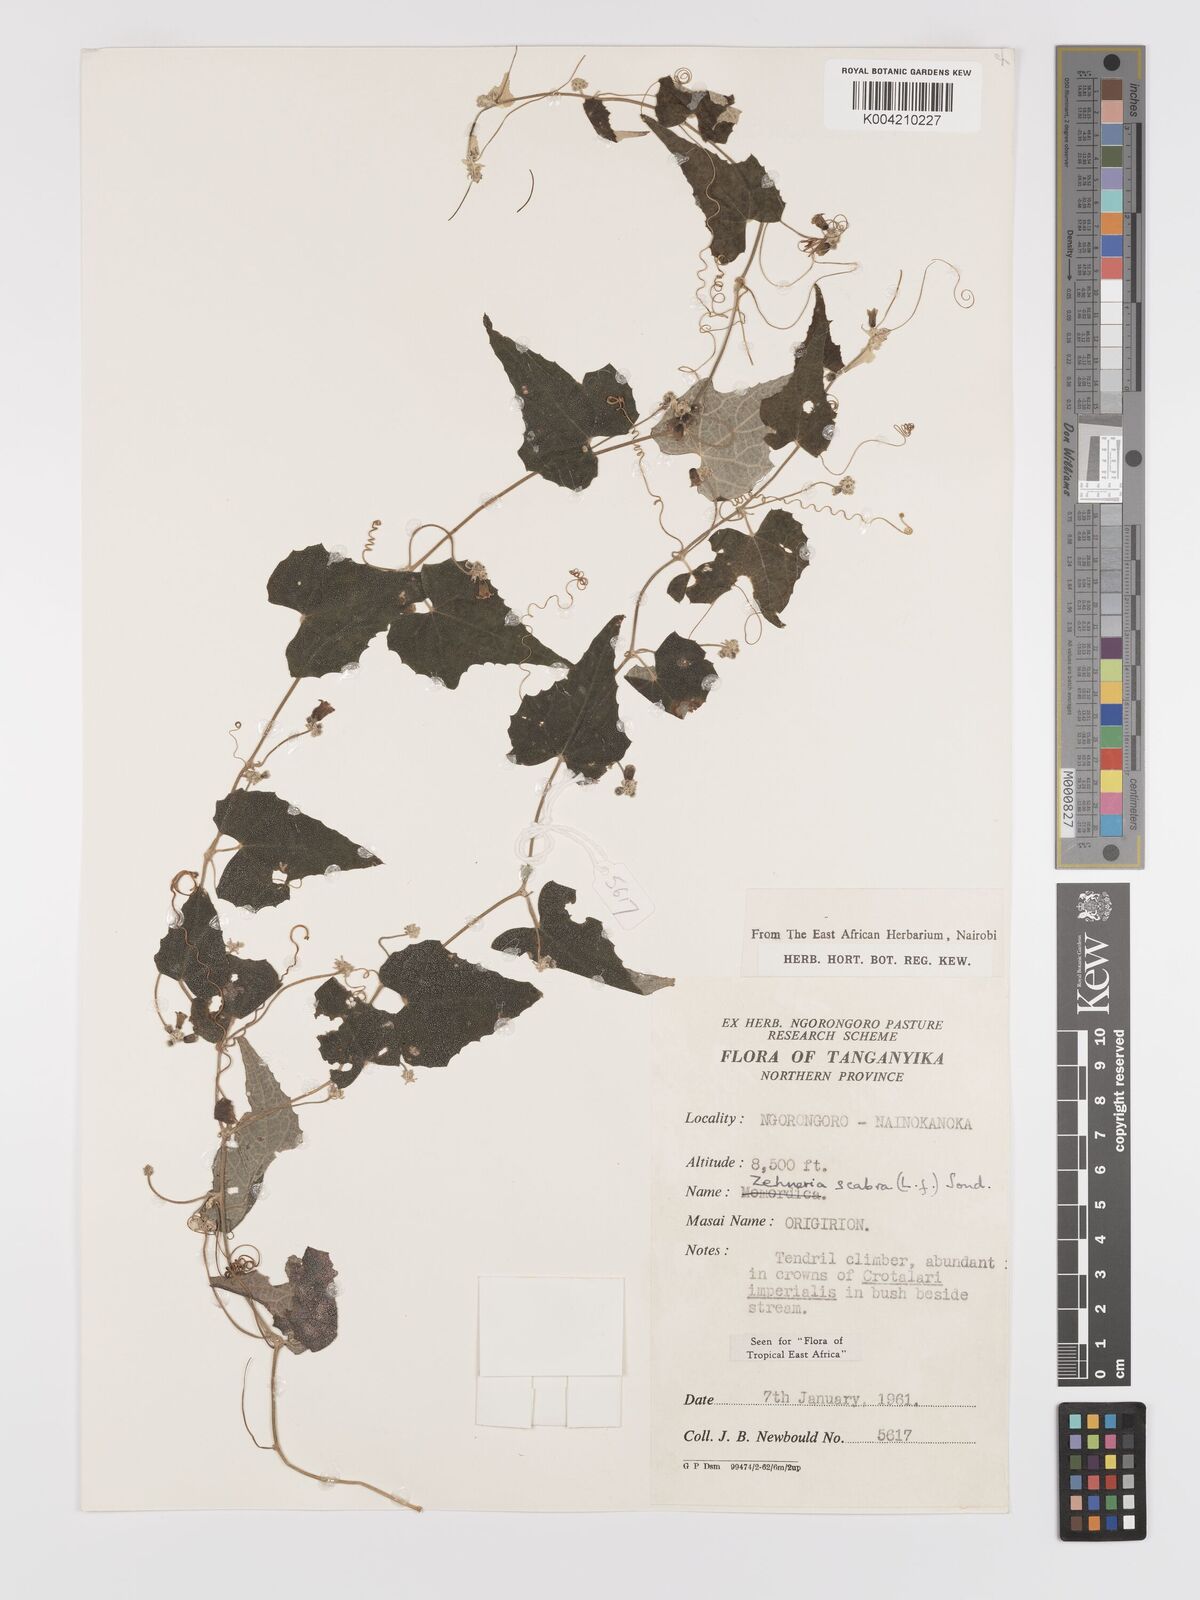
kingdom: Plantae
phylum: Tracheophyta
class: Magnoliopsida
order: Cucurbitales
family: Cucurbitaceae
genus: Zehneria
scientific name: Zehneria scabra
